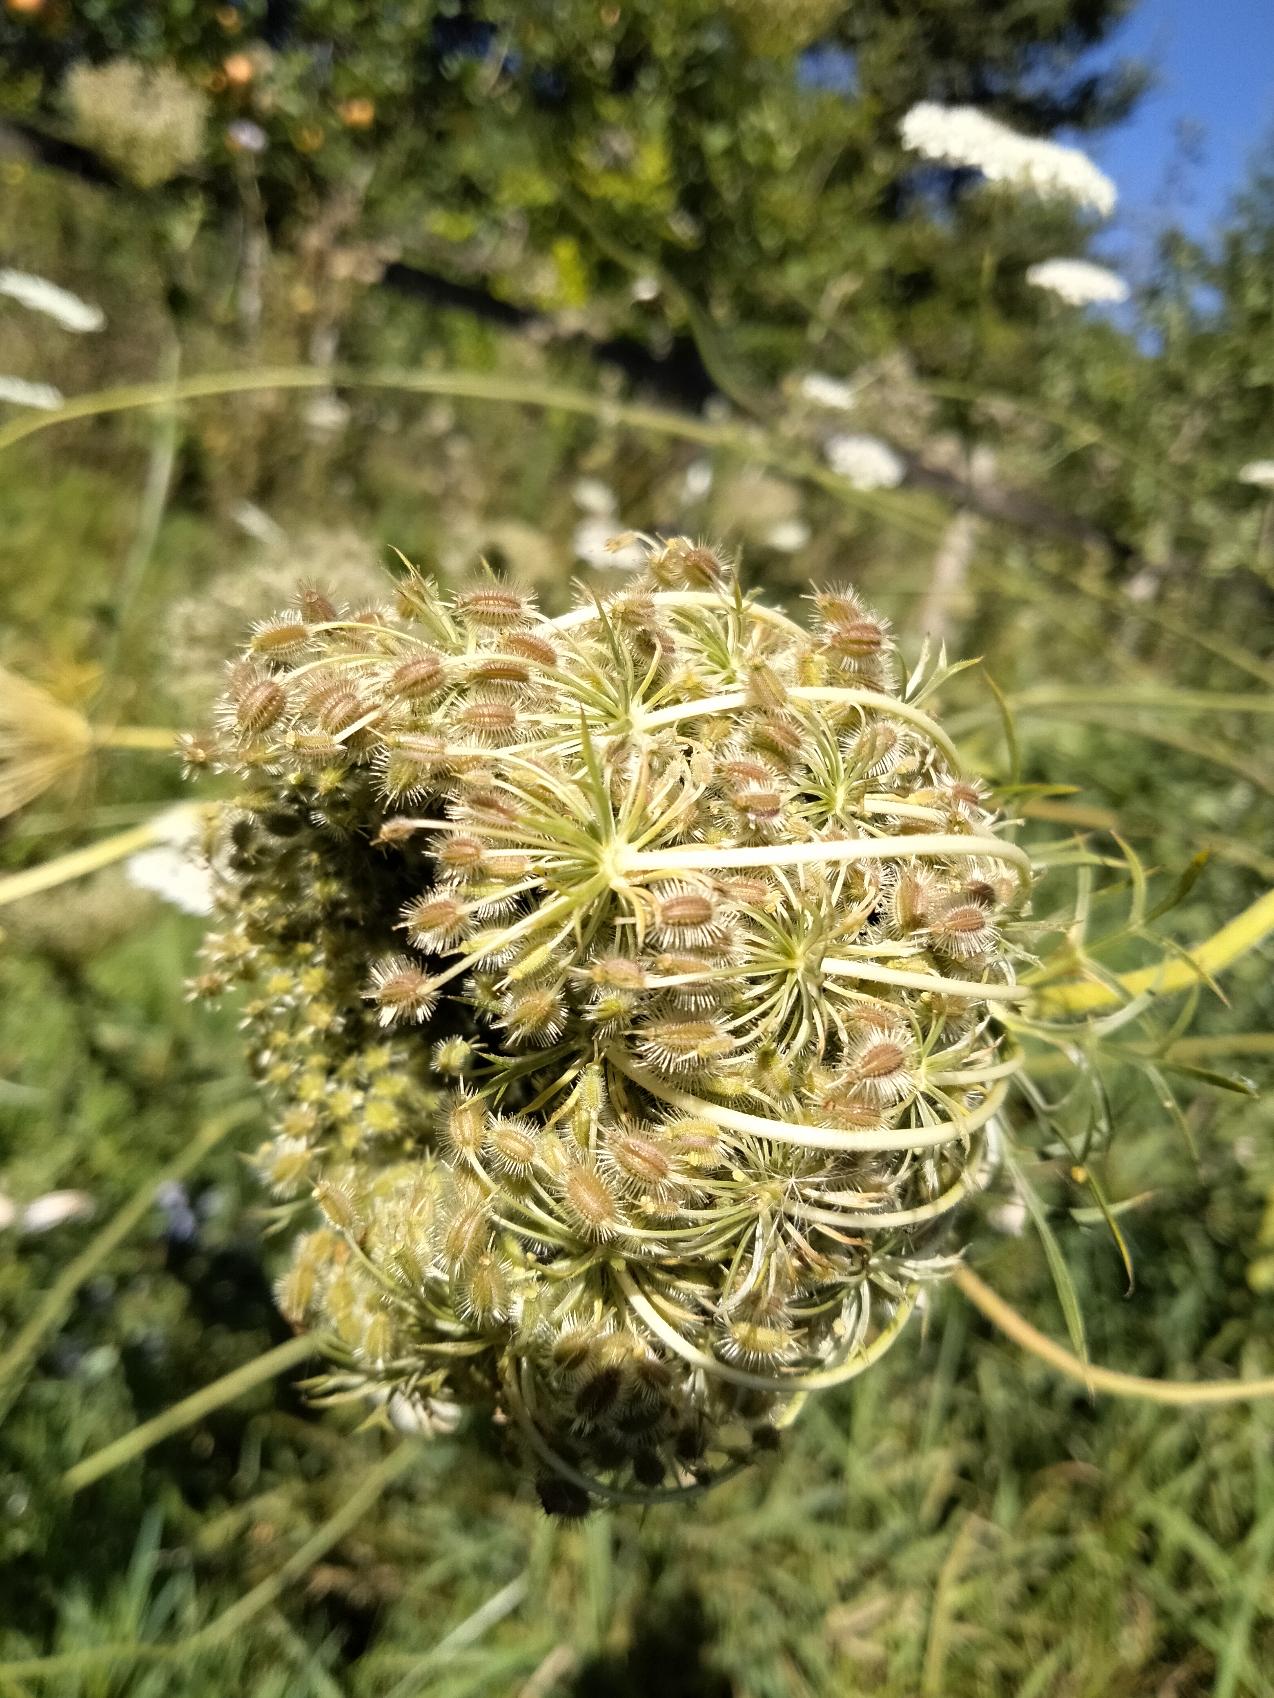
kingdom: Plantae
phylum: Tracheophyta
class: Magnoliopsida
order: Apiales
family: Apiaceae
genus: Daucus
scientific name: Daucus carota
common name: Vild gulerod
